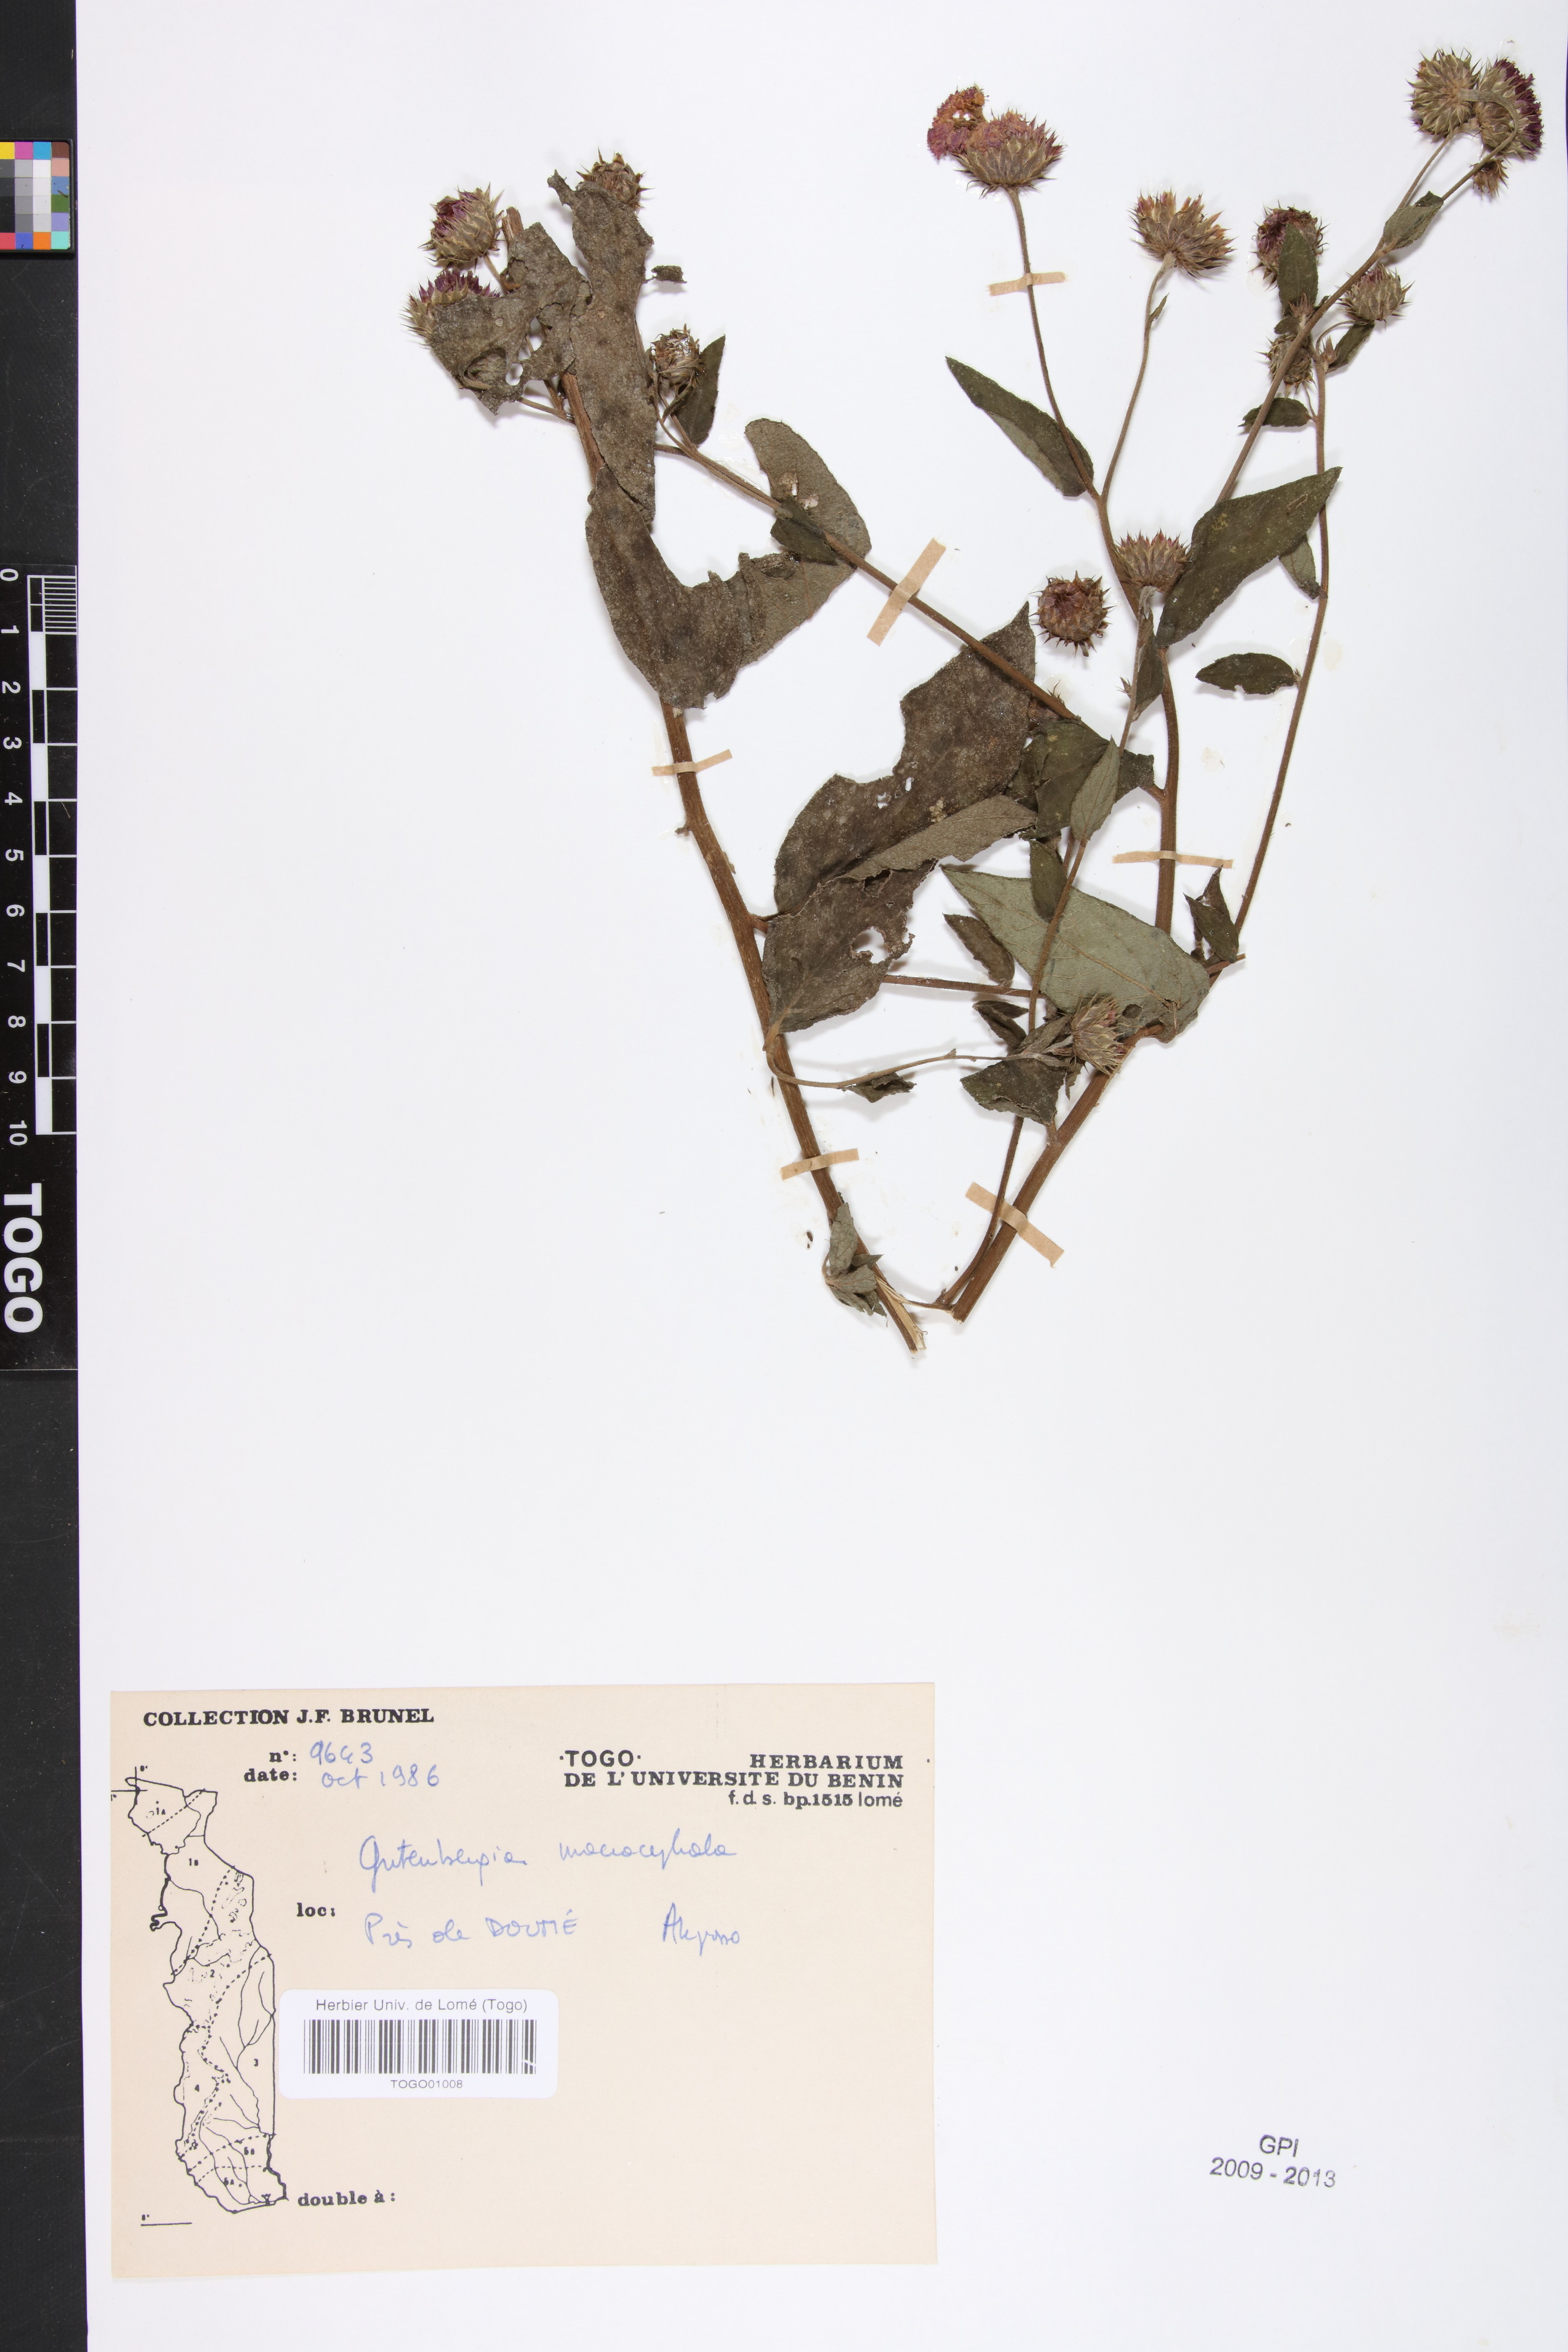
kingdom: Plantae
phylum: Tracheophyta
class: Magnoliopsida
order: Asterales
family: Asteraceae
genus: Kinghamia
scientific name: Kinghamia macrocephala
